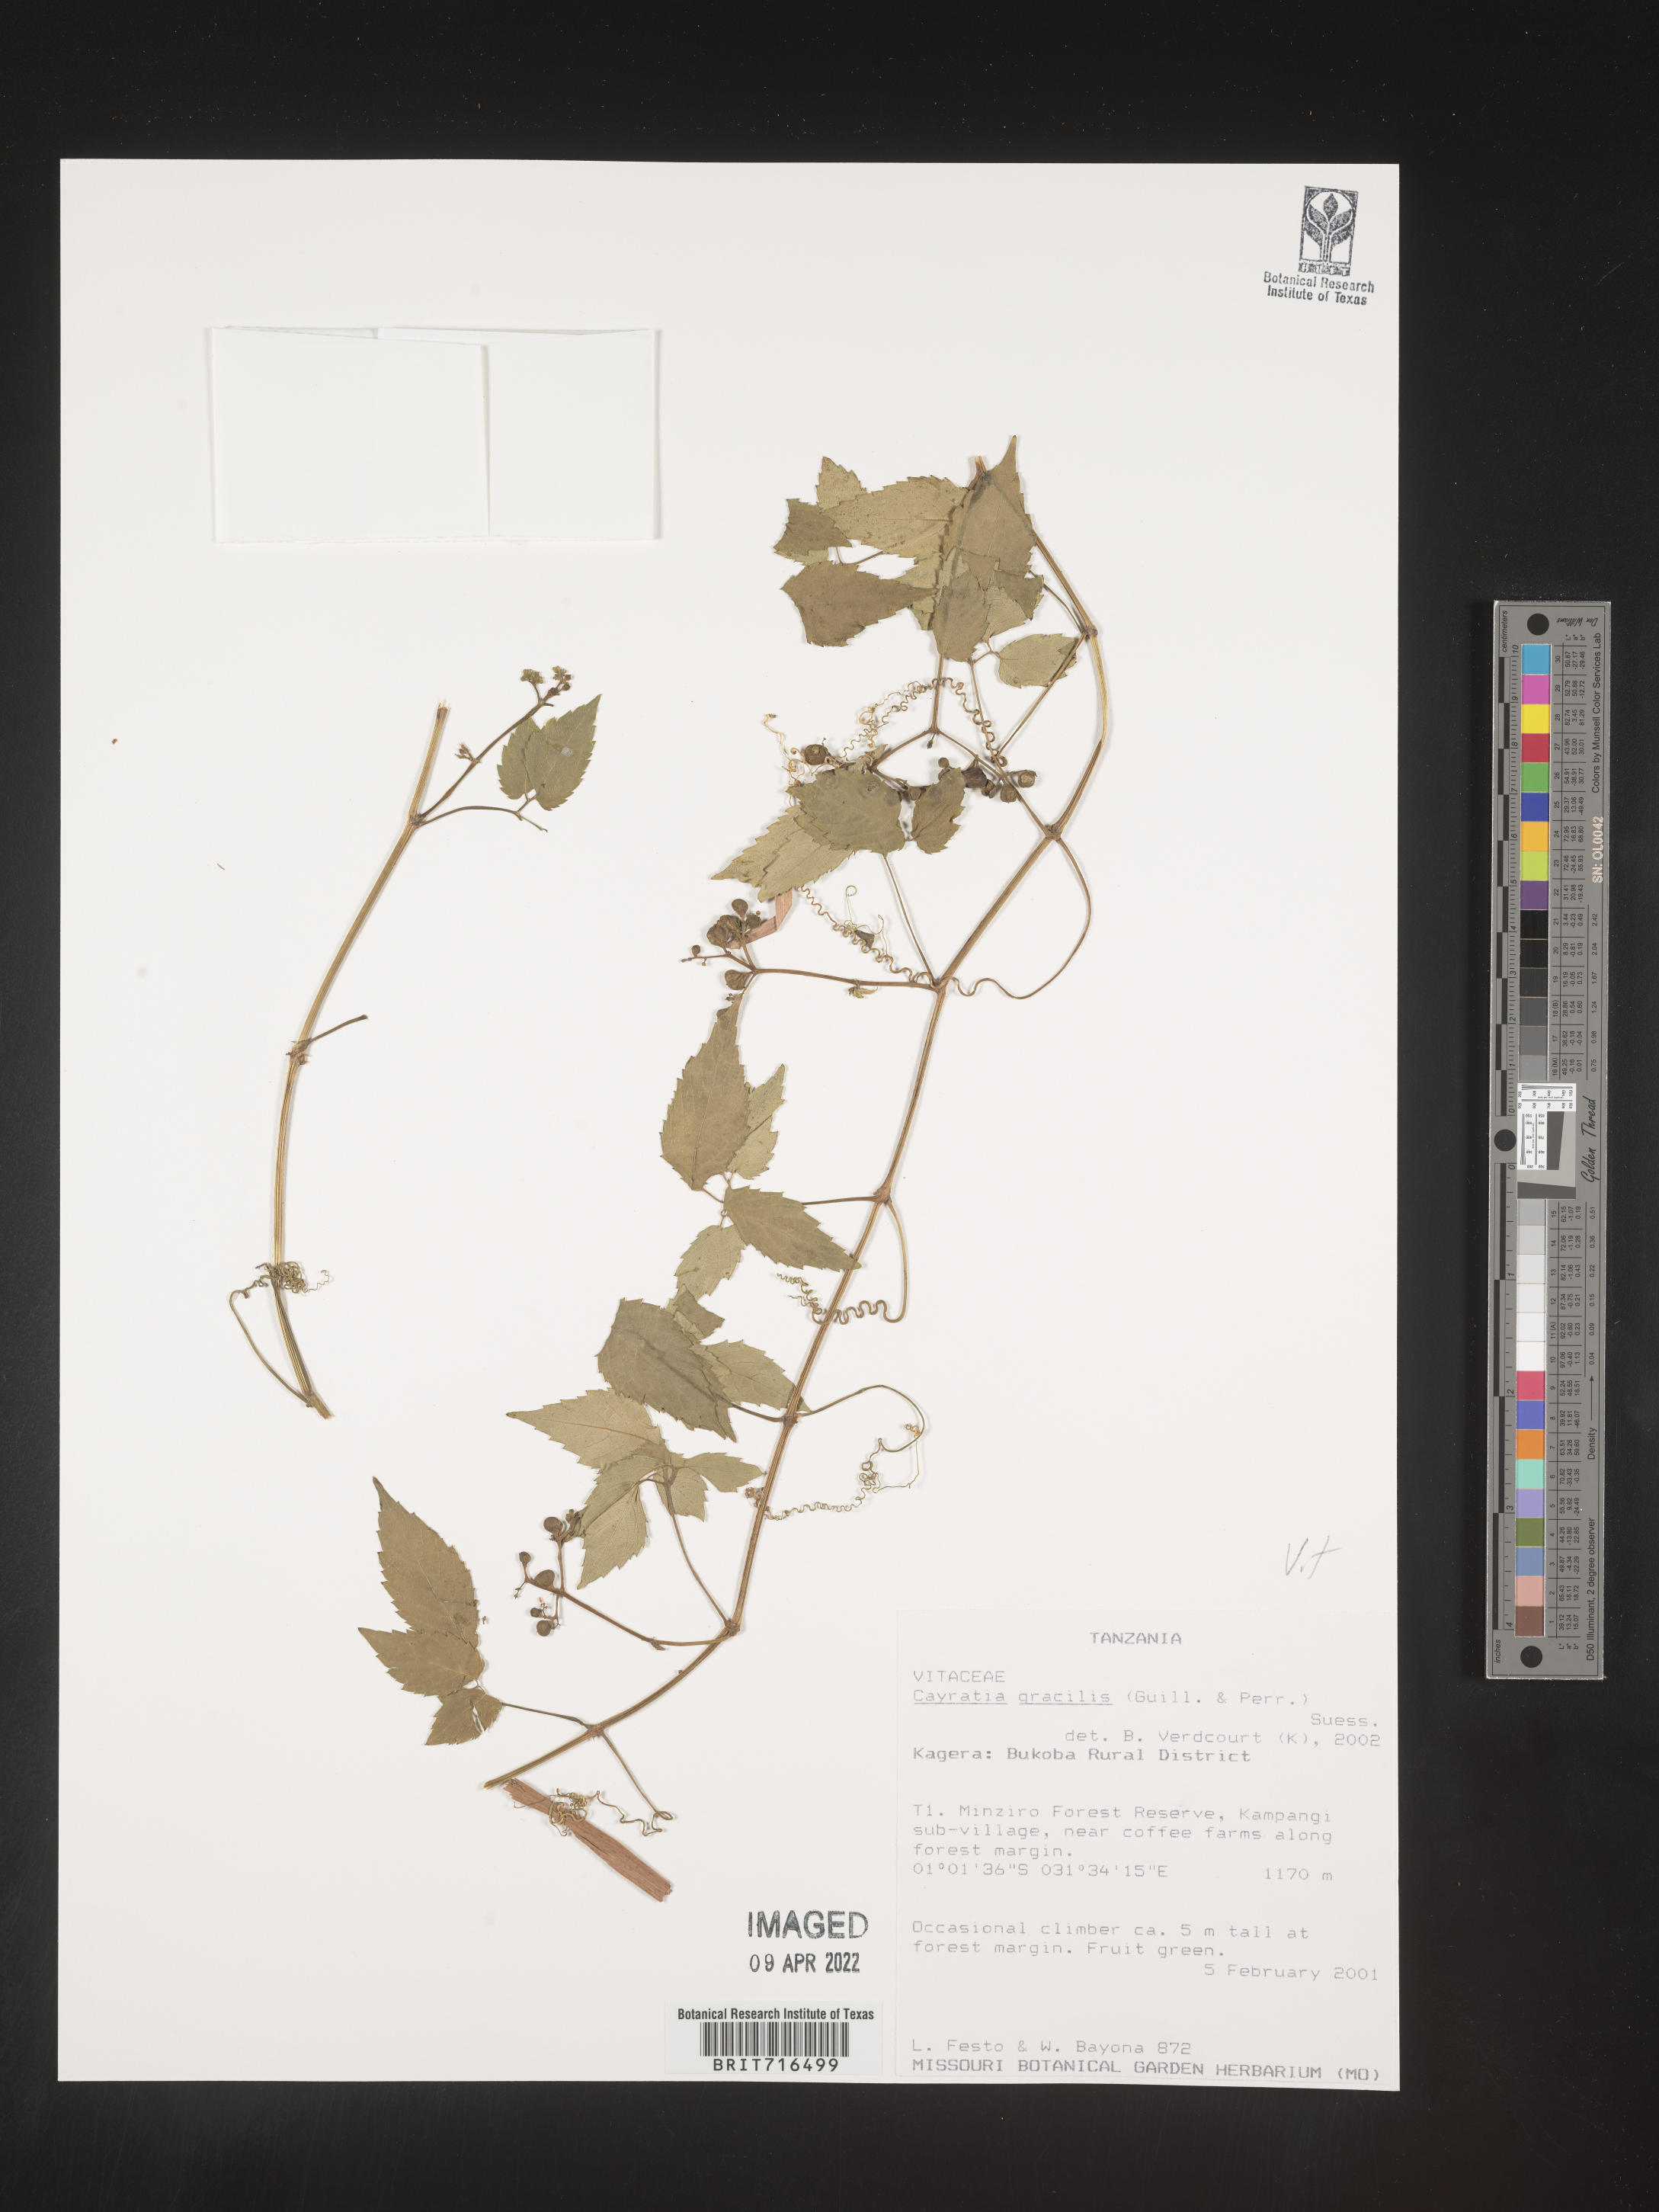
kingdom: Plantae
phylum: Tracheophyta
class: Magnoliopsida
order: Vitales
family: Vitaceae
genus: Cayratia
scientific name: Cayratia
